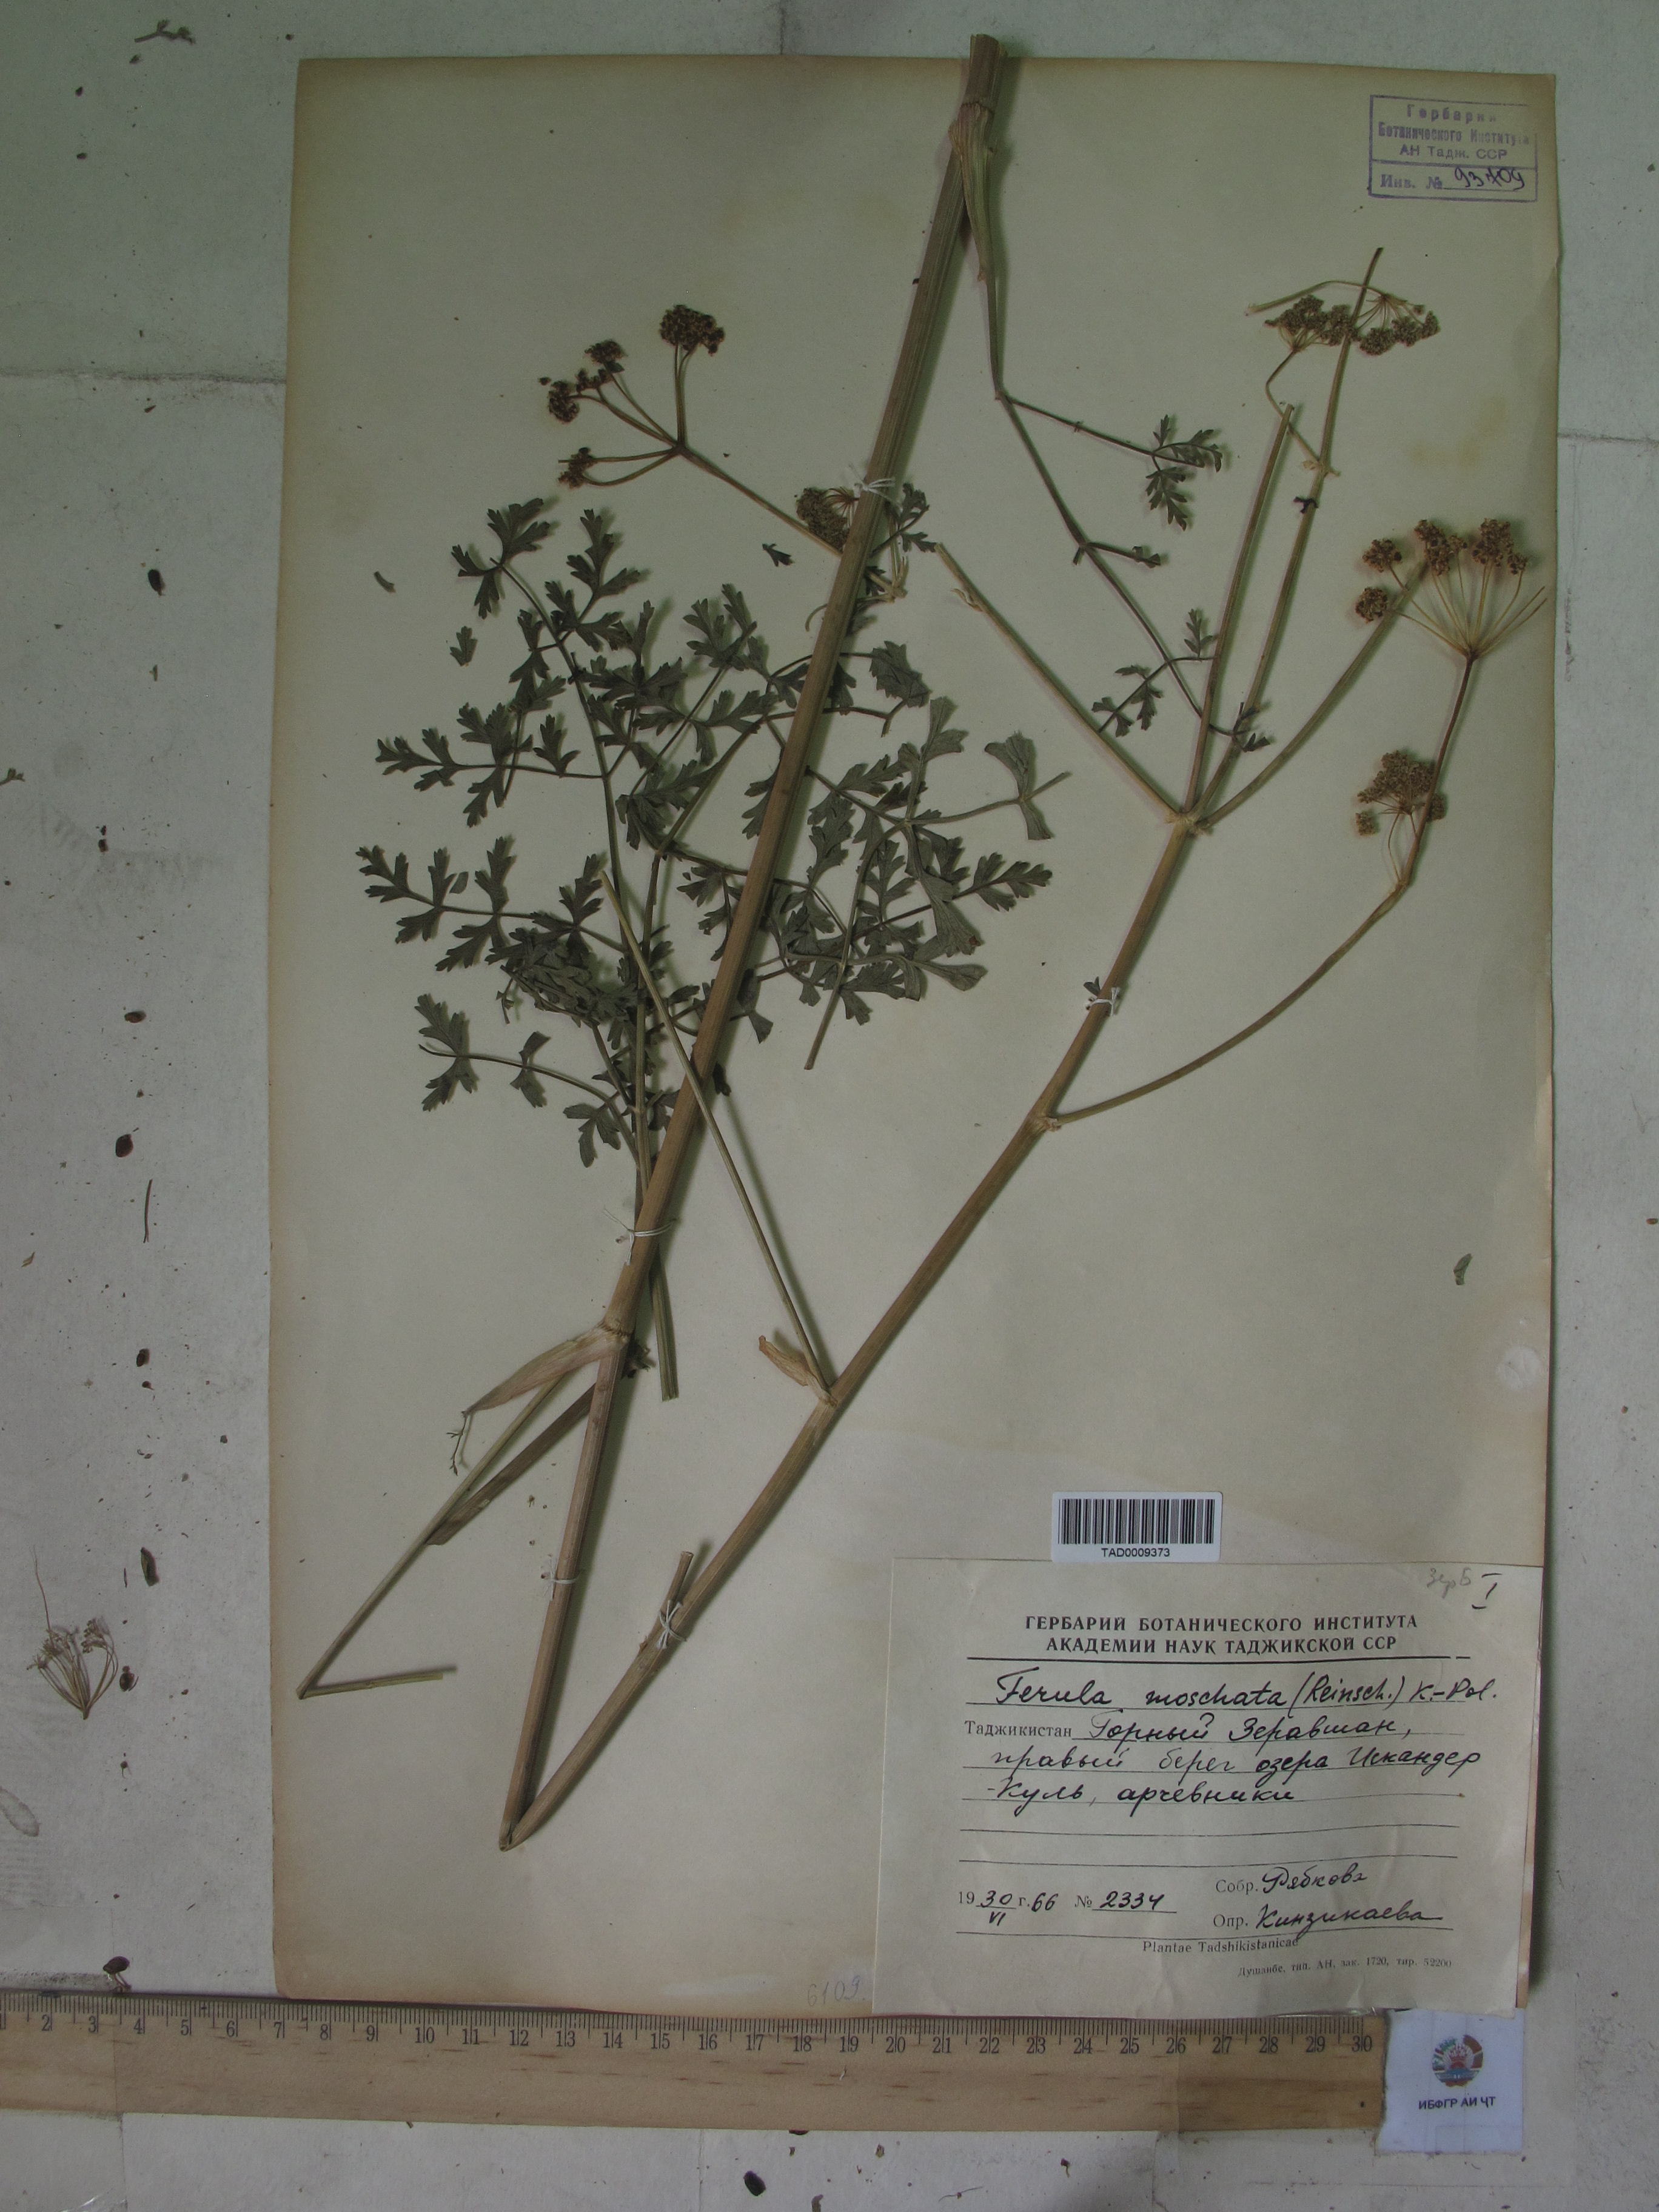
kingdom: Plantae
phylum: Tracheophyta
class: Magnoliopsida
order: Apiales
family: Apiaceae
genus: Ferula
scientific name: Ferula moschata
